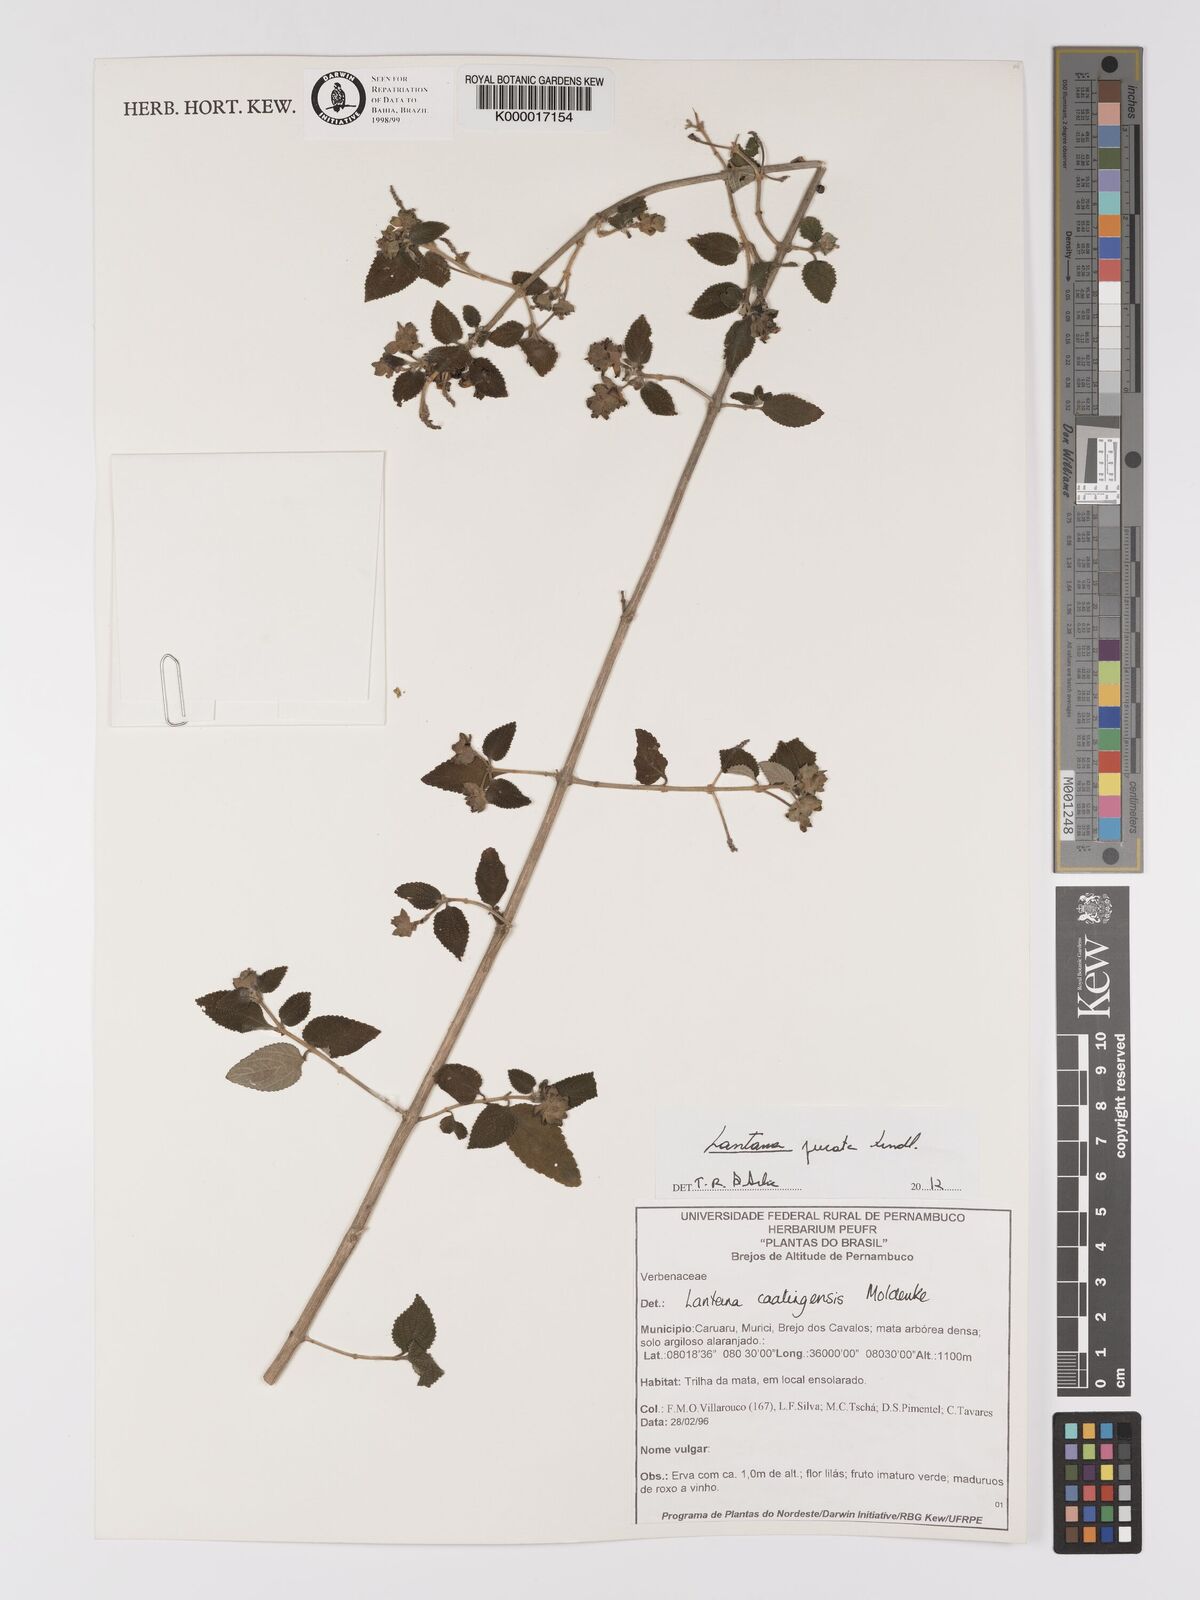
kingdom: Plantae
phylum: Tracheophyta
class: Magnoliopsida
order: Lamiales
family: Verbenaceae
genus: Lantana
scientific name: Lantana fucata
